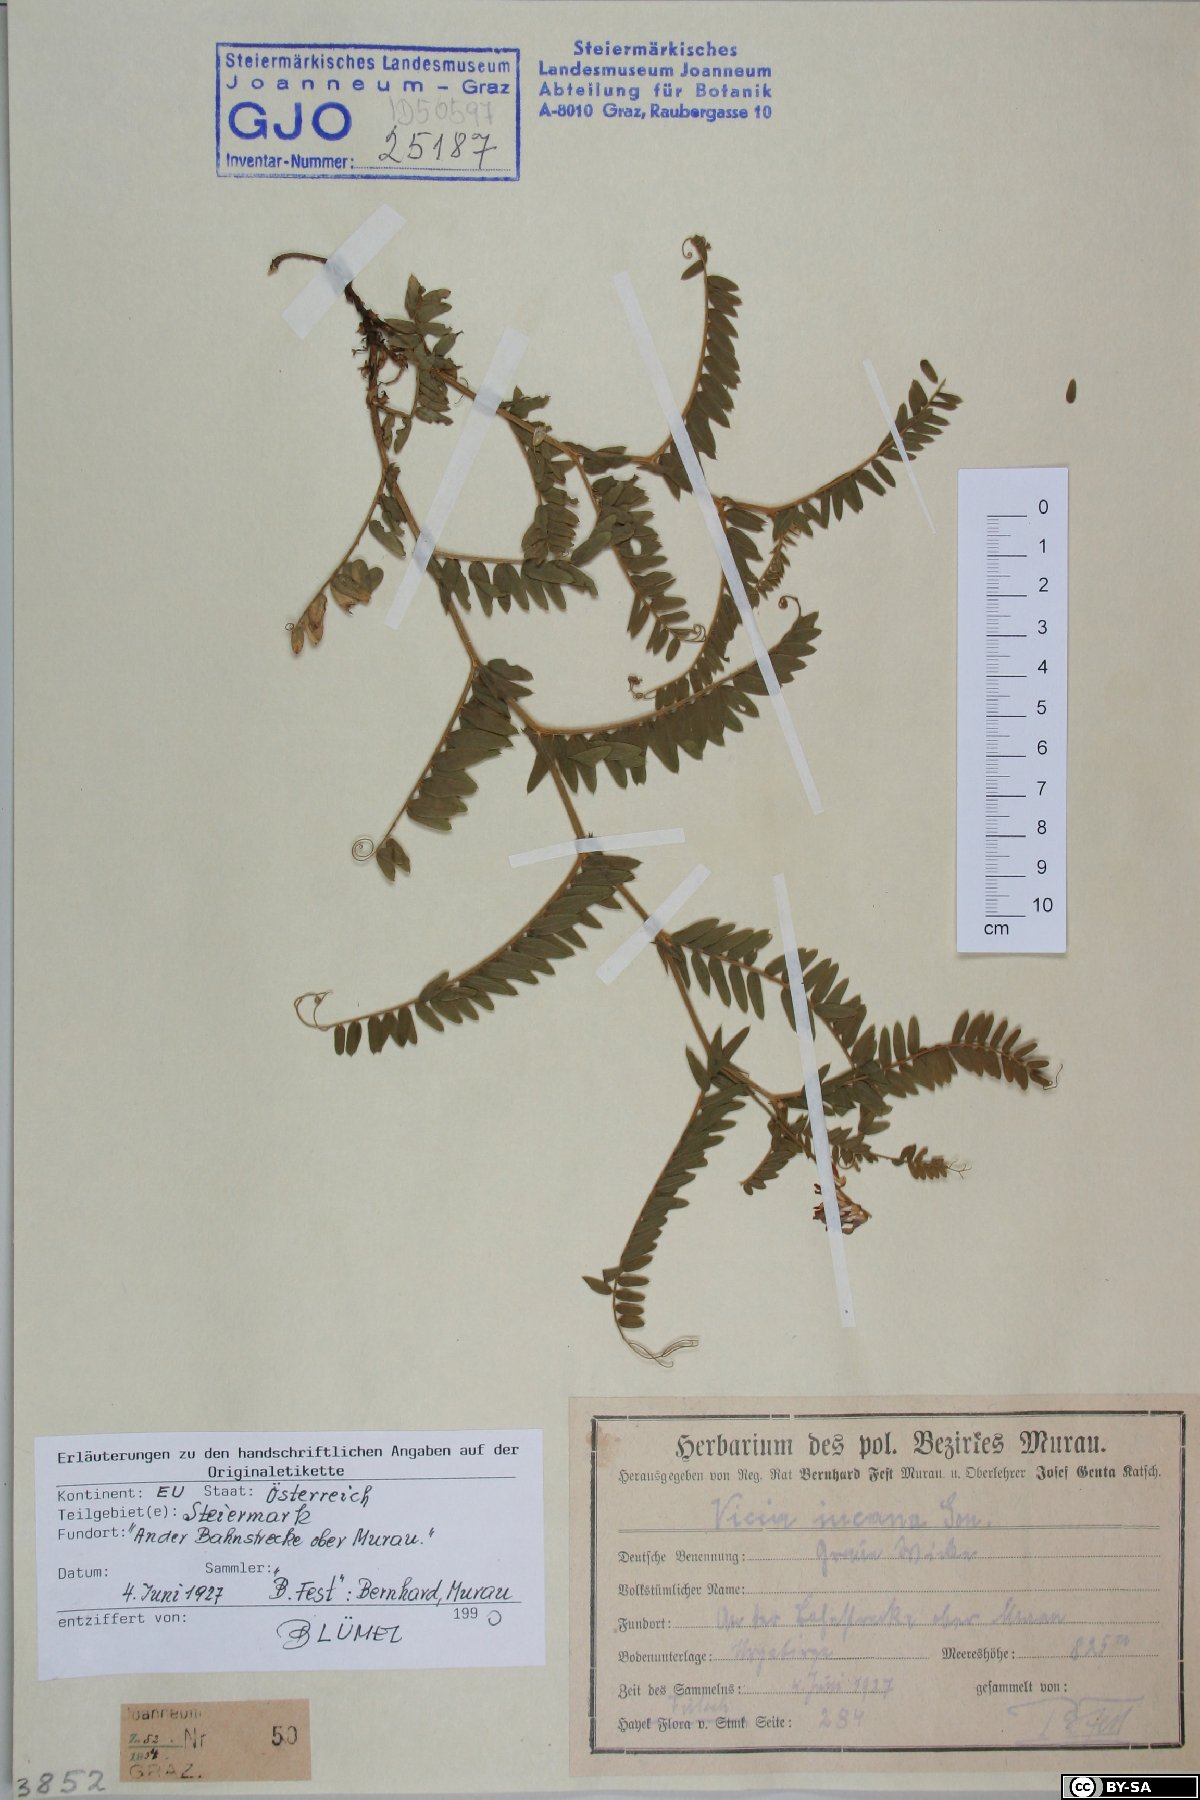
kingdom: Plantae
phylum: Tracheophyta
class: Magnoliopsida
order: Fabales
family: Fabaceae
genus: Vicia
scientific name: Vicia incana
